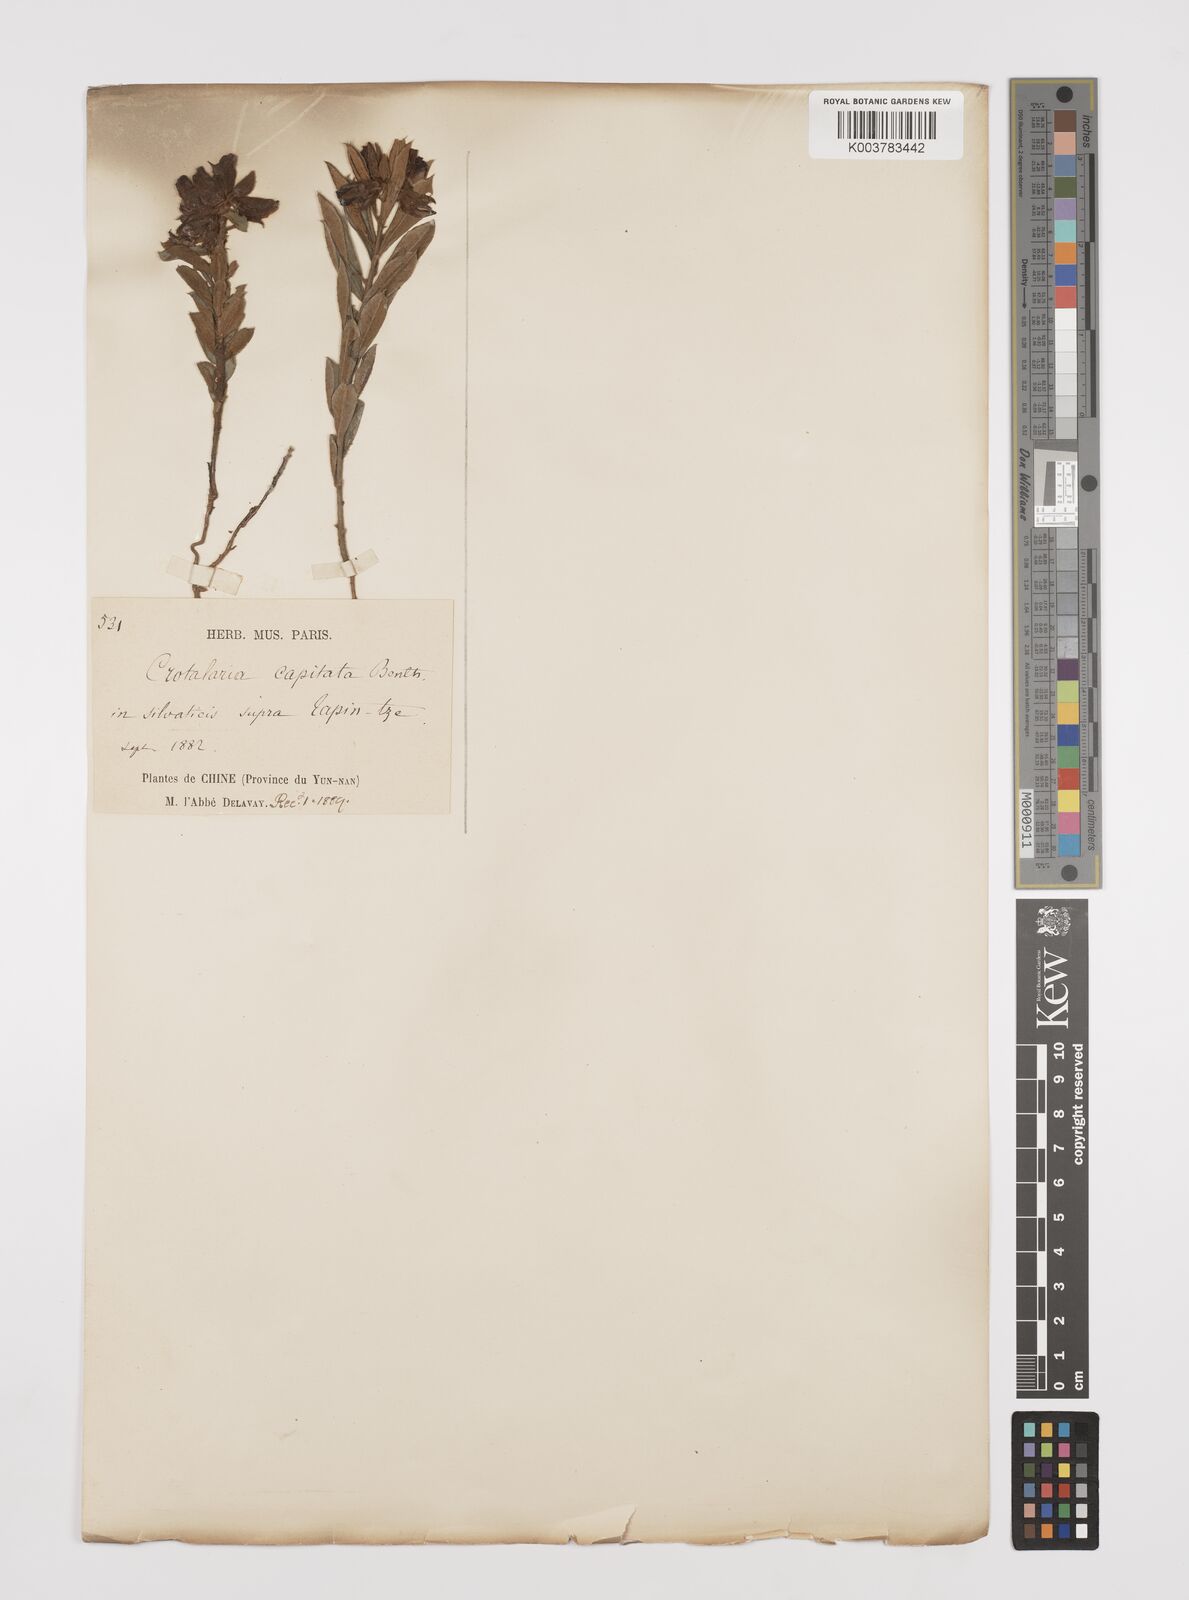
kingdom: Plantae
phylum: Tracheophyta
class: Magnoliopsida
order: Fabales
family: Fabaceae
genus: Liparia
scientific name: Liparia capitata
